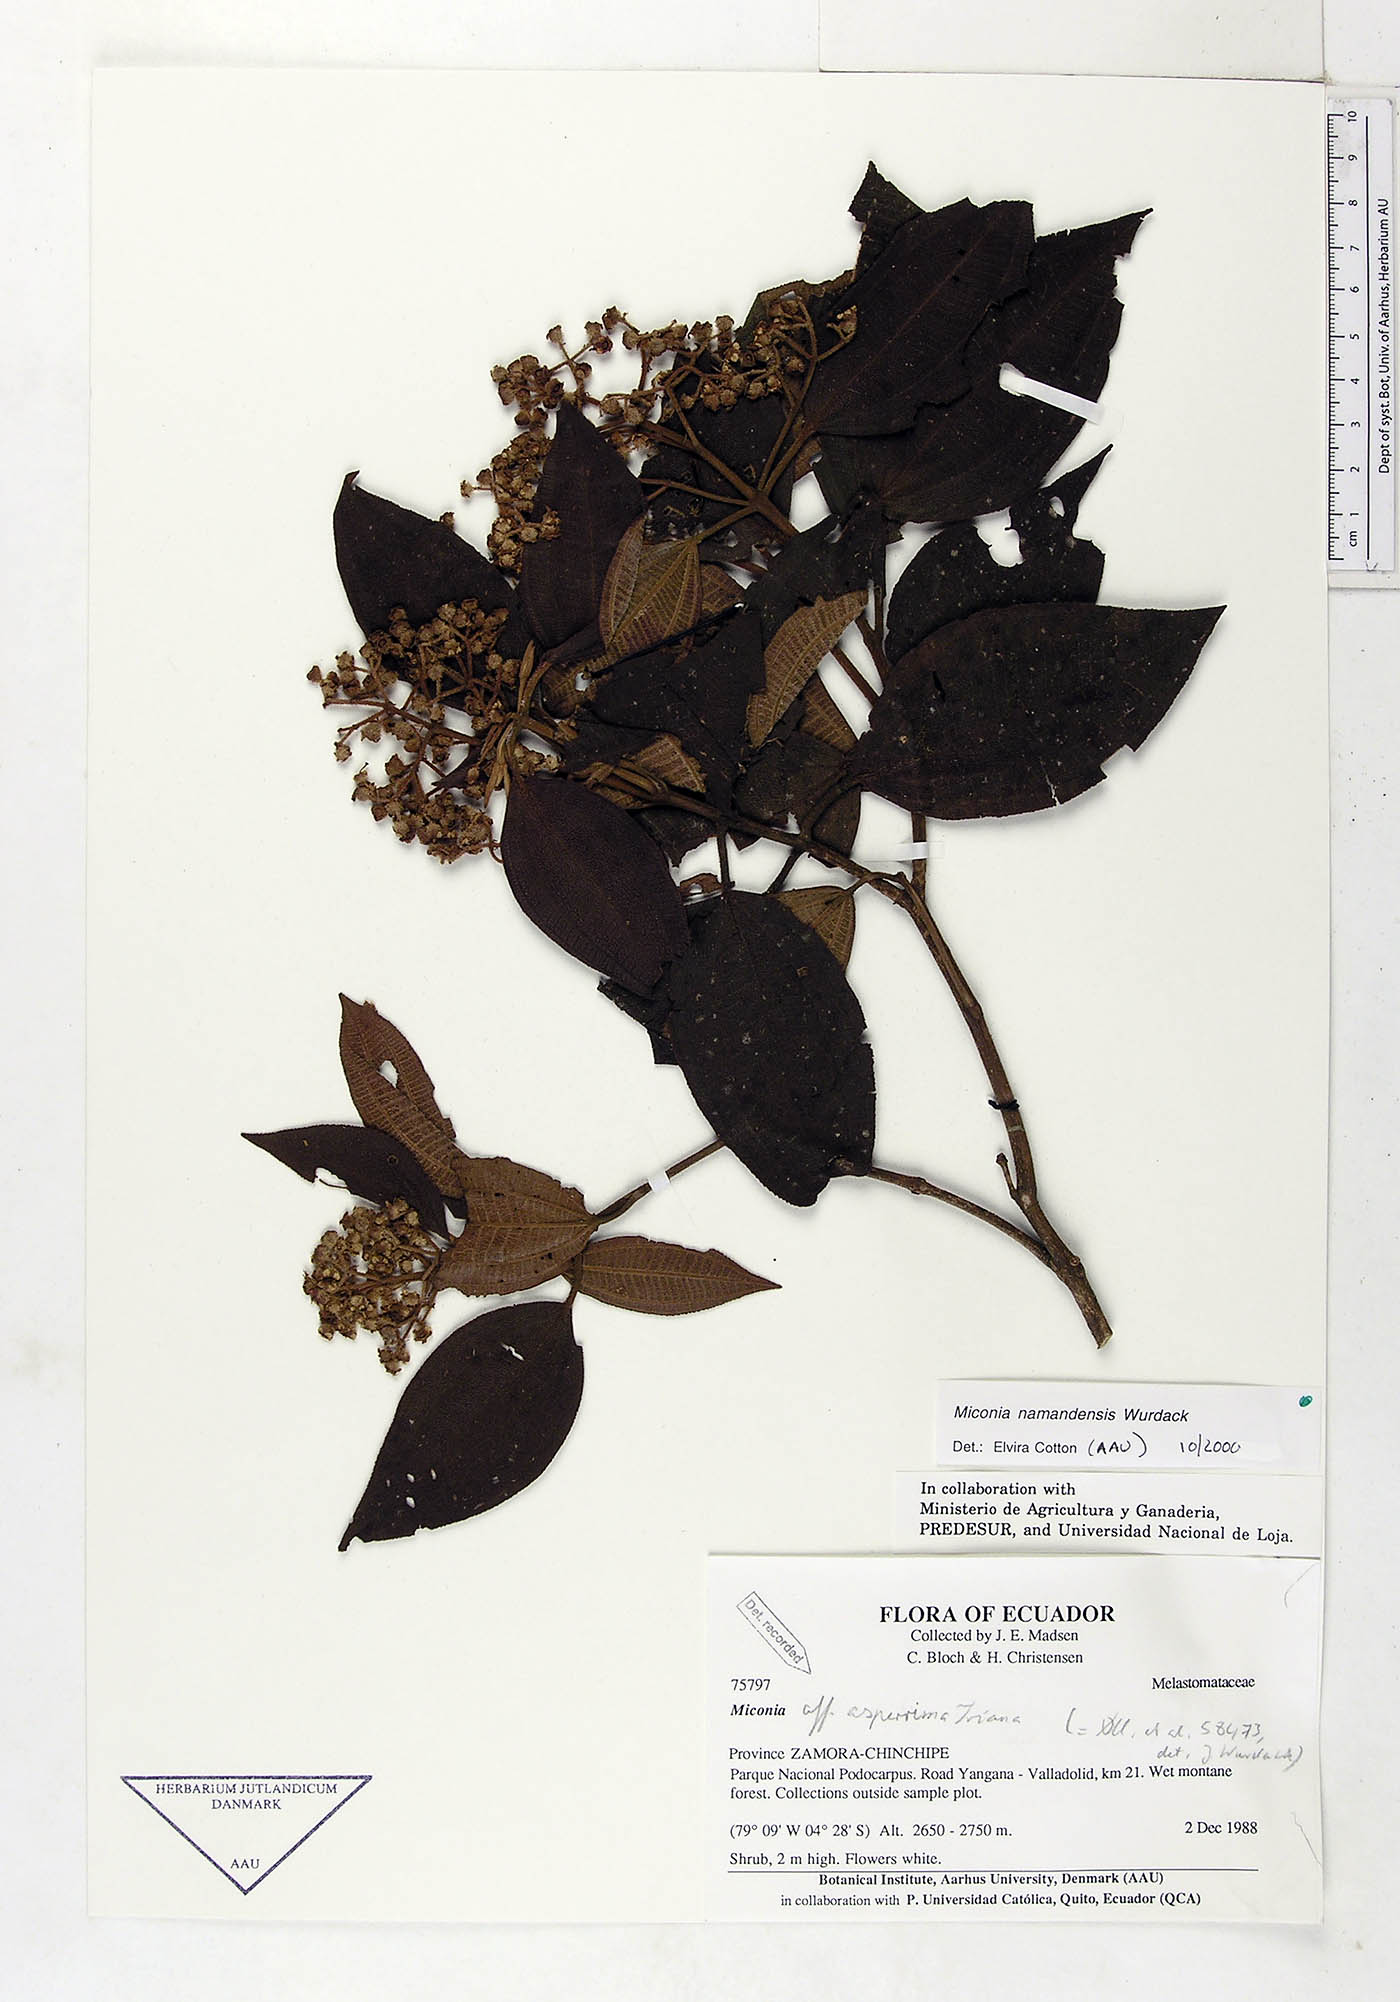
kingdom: Plantae
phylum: Tracheophyta
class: Magnoliopsida
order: Myrtales
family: Melastomataceae
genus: Miconia
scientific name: Miconia namandensis
